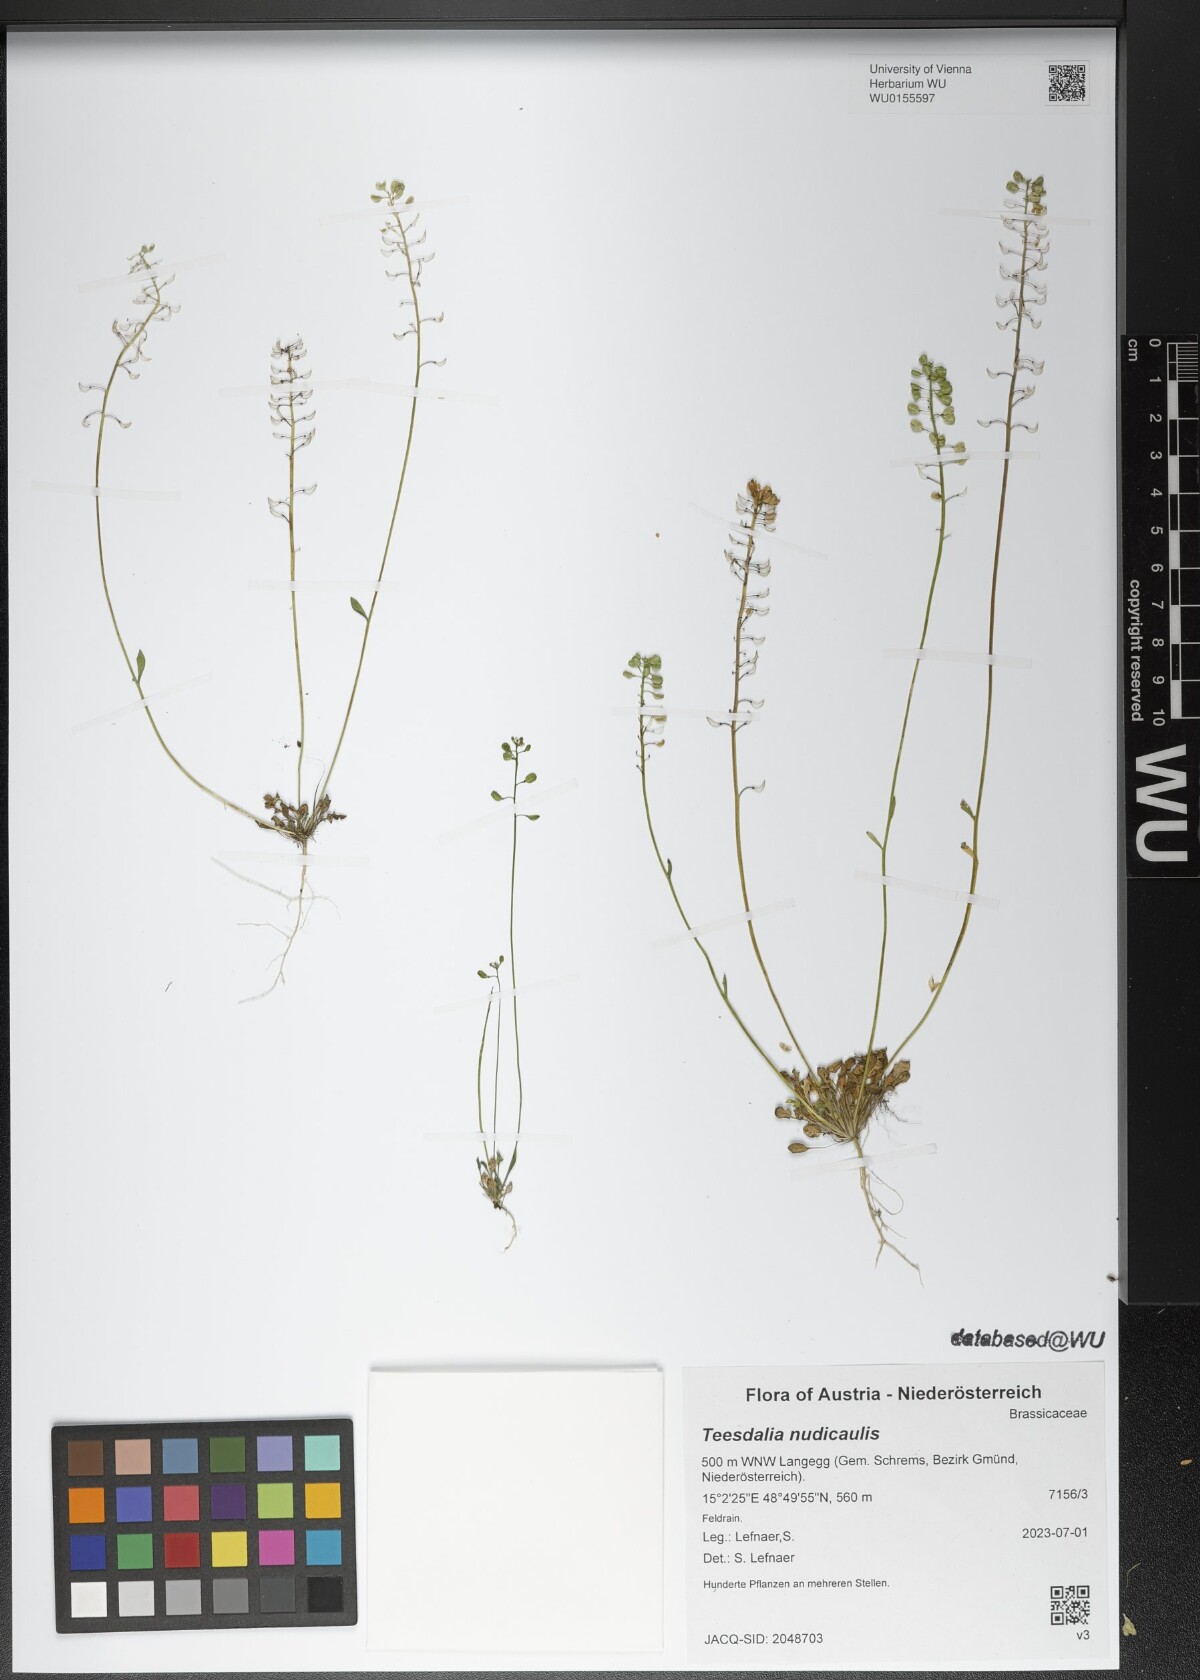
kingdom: Plantae
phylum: Tracheophyta
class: Magnoliopsida
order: Brassicales
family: Brassicaceae
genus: Teesdalia
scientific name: Teesdalia nudicaulis
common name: Shepherd's cress
